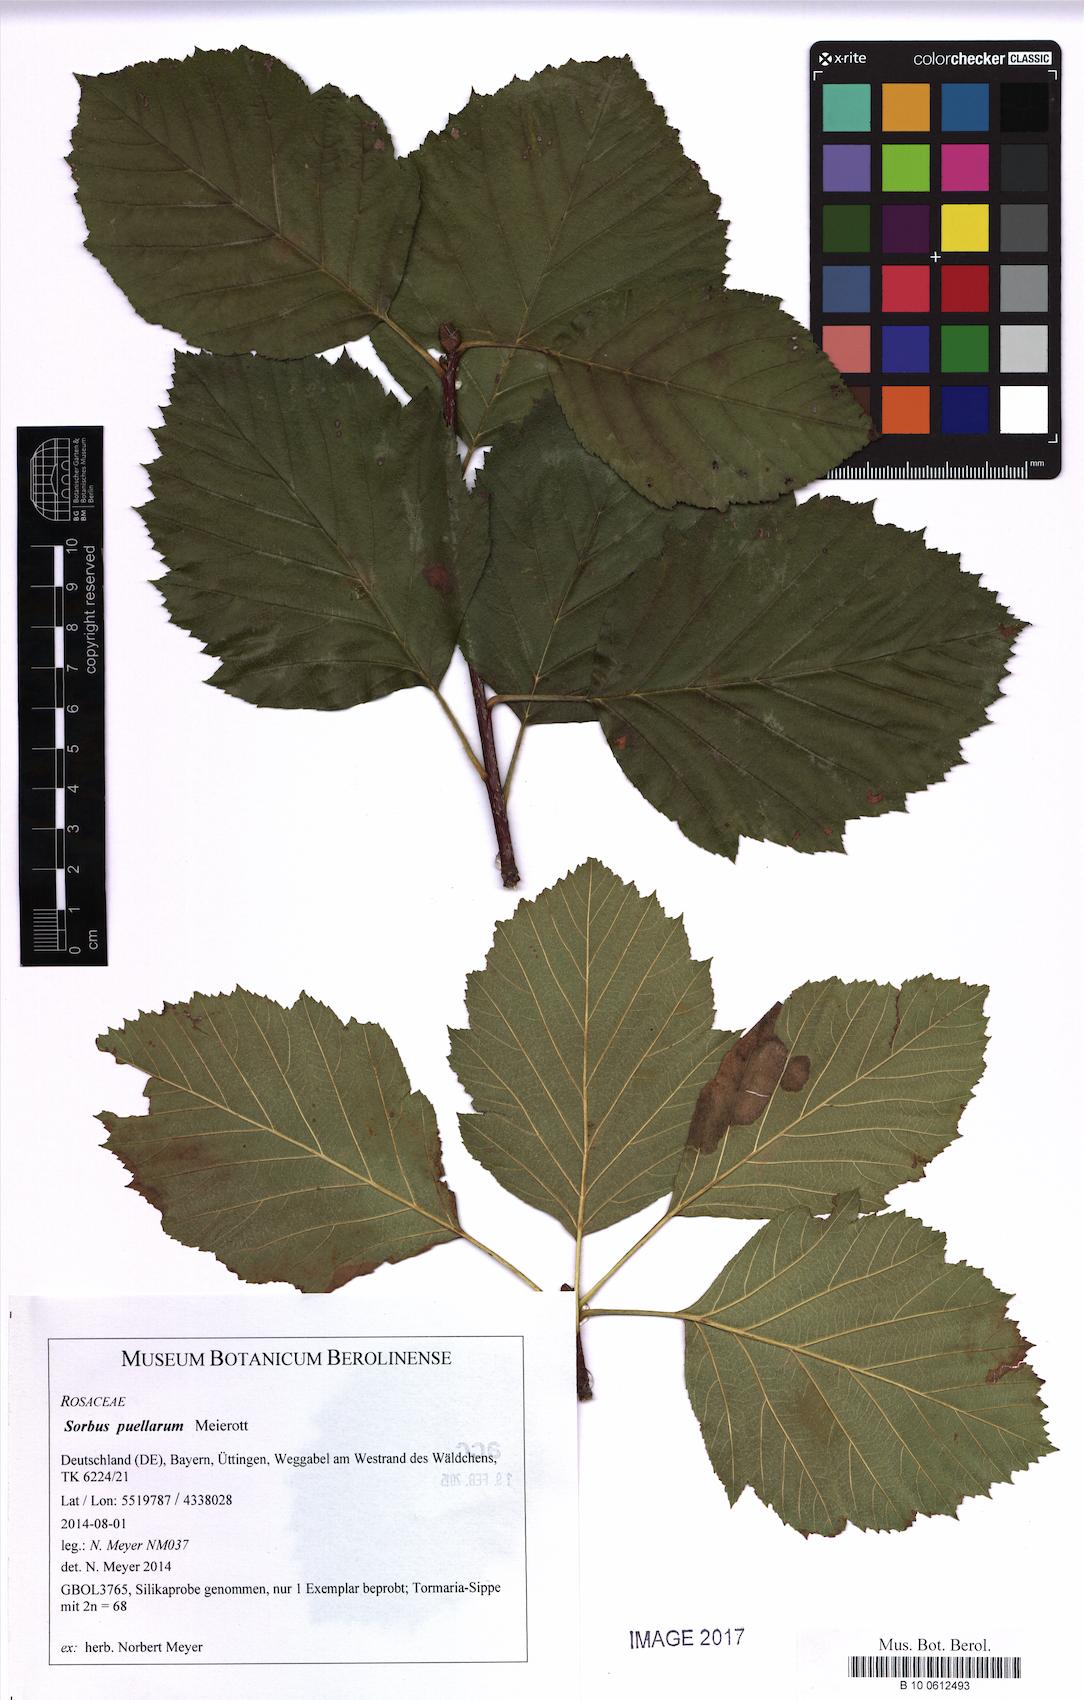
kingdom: Plantae
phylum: Tracheophyta
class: Magnoliopsida
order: Rosales
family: Rosaceae
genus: Karpatiosorbus
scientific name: Karpatiosorbus puellarum
